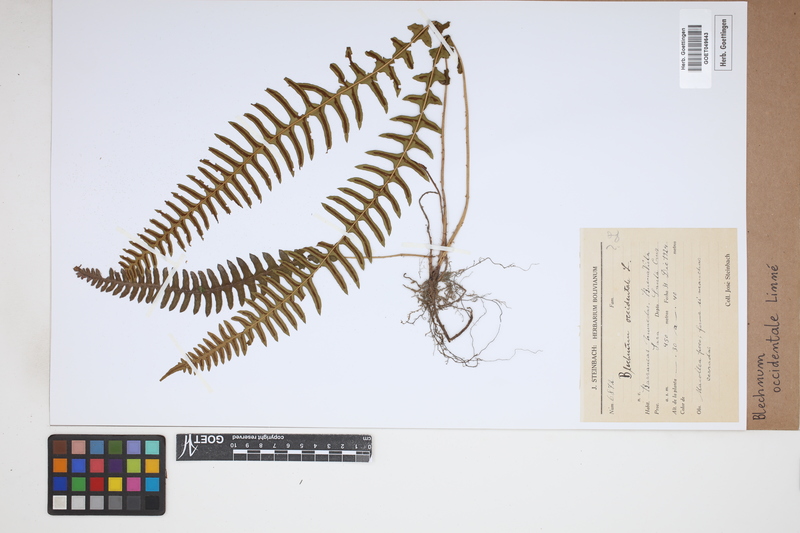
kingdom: Plantae
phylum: Tracheophyta
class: Polypodiopsida
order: Polypodiales
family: Blechnaceae
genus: Blechnum
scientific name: Blechnum occidentale
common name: Hammock fern
